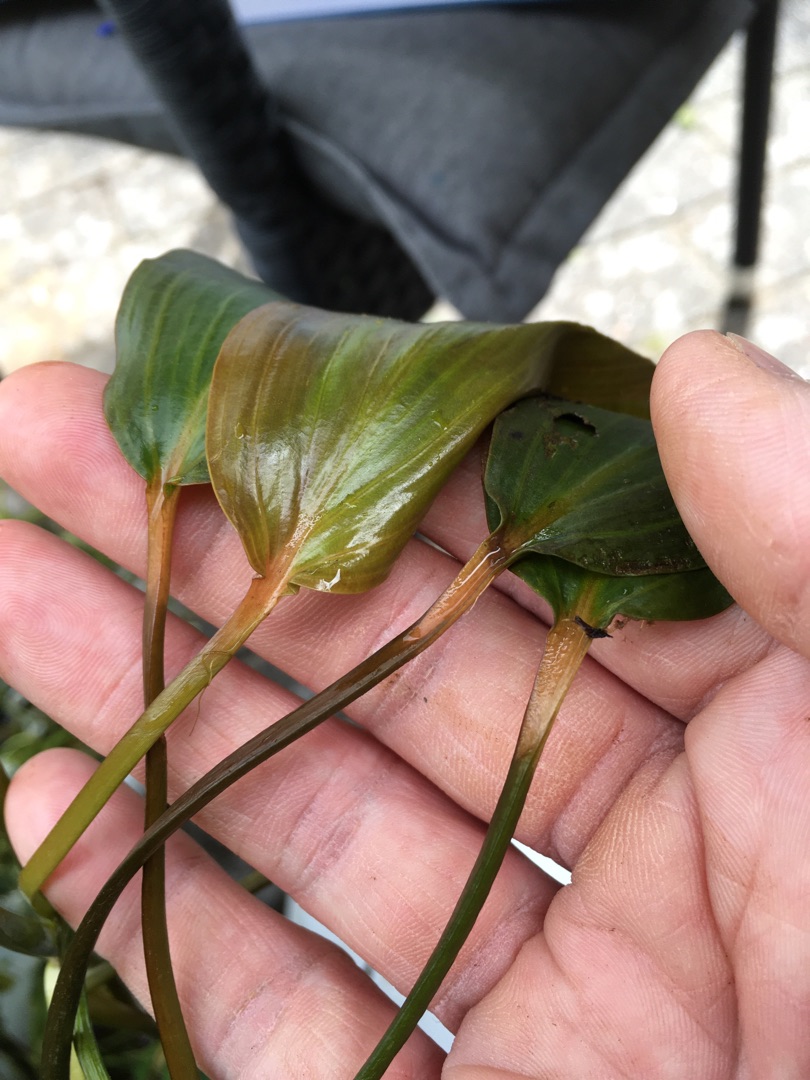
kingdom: Plantae
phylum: Tracheophyta
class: Liliopsida
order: Alismatales
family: Potamogetonaceae
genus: Potamogeton
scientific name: Potamogeton natans
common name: Svømmende vandaks
